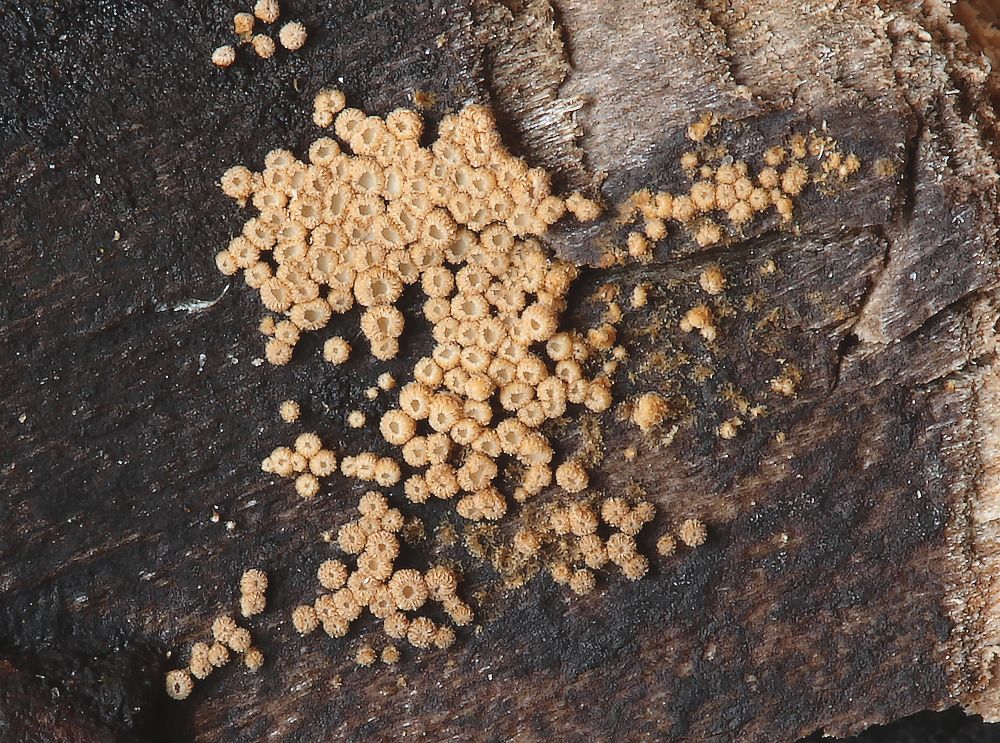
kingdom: Fungi
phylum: Basidiomycota
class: Agaricomycetes
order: Agaricales
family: Niaceae
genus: Merismodes
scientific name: Merismodes anomala
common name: almindelig læderskål
